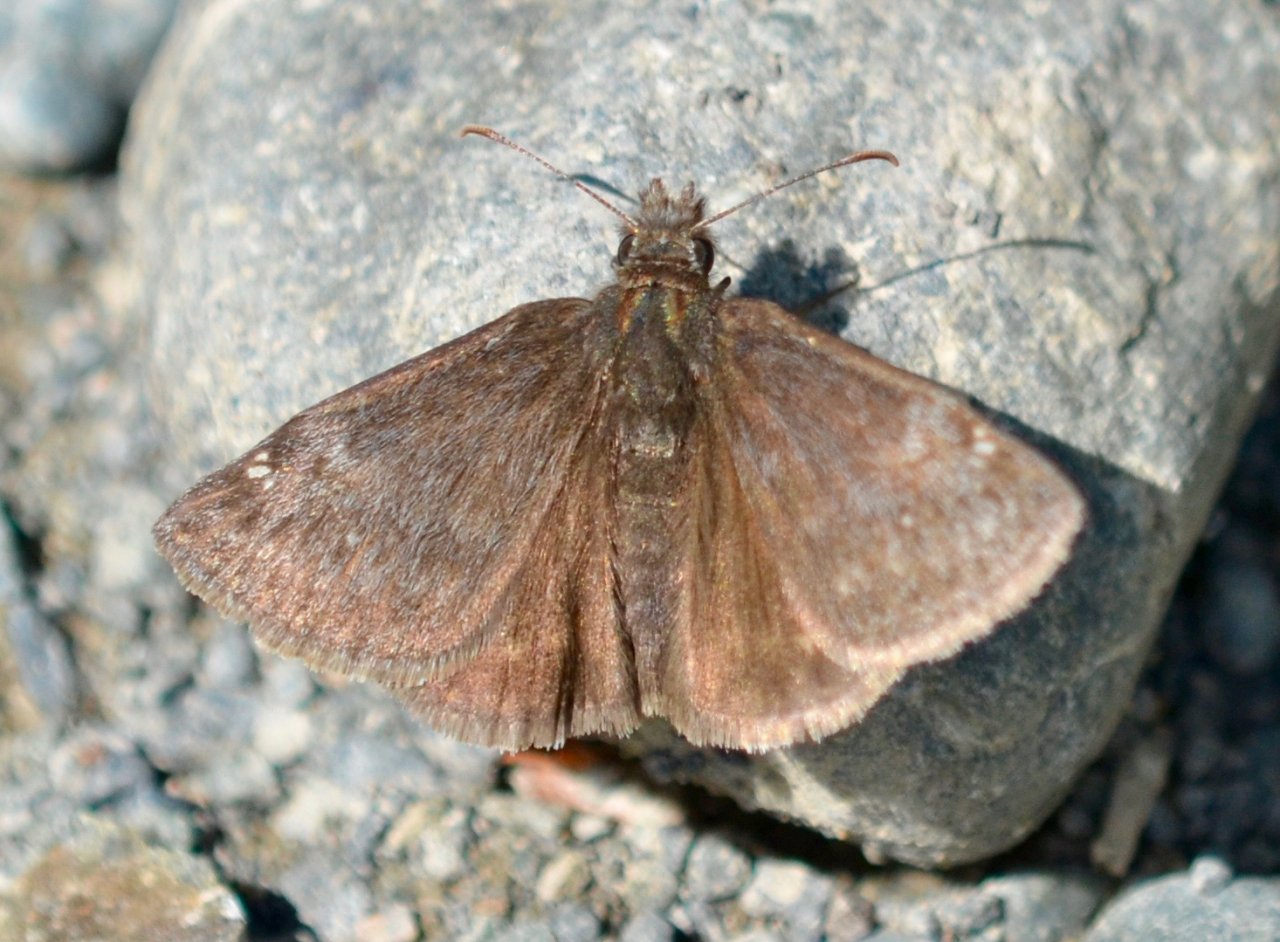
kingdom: Animalia
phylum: Arthropoda
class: Insecta
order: Lepidoptera
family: Hesperiidae
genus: Gesta
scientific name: Gesta
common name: Persius Duskywing
